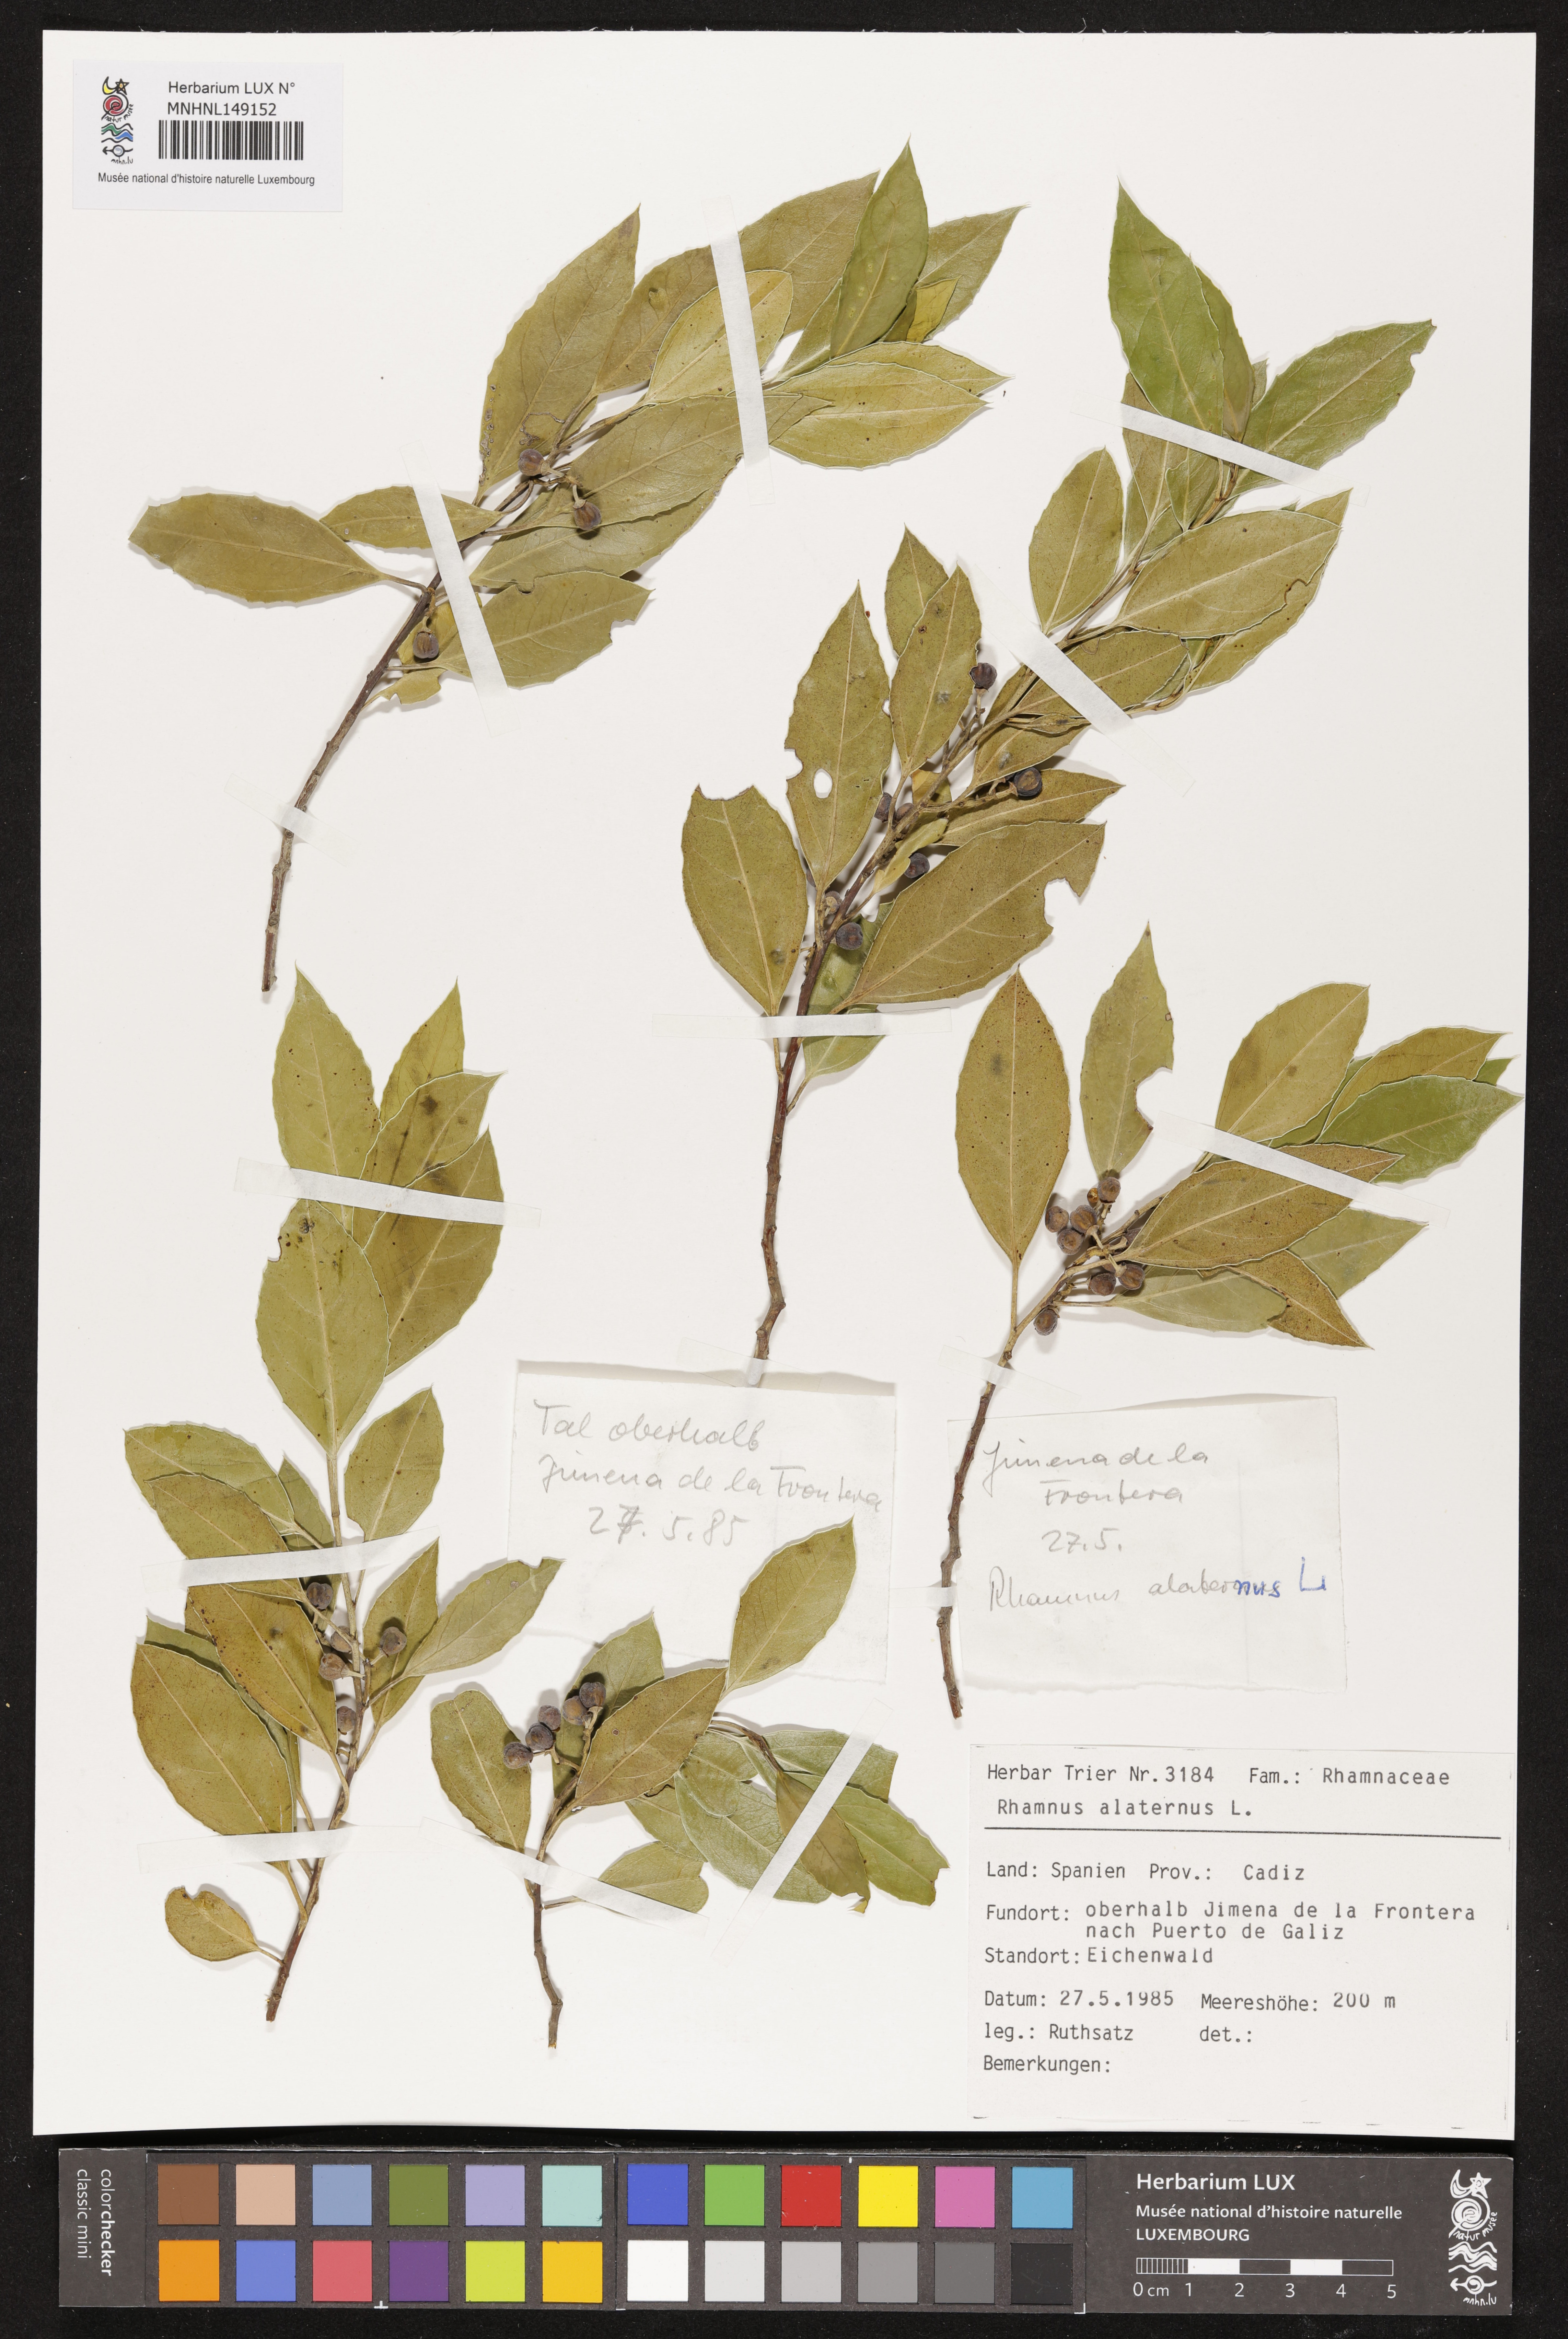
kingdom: Plantae
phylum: Tracheophyta
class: Magnoliopsida
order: Rosales
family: Rhamnaceae
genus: Rhamnus
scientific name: Rhamnus alaternus
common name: Mediterranean buckthorn
